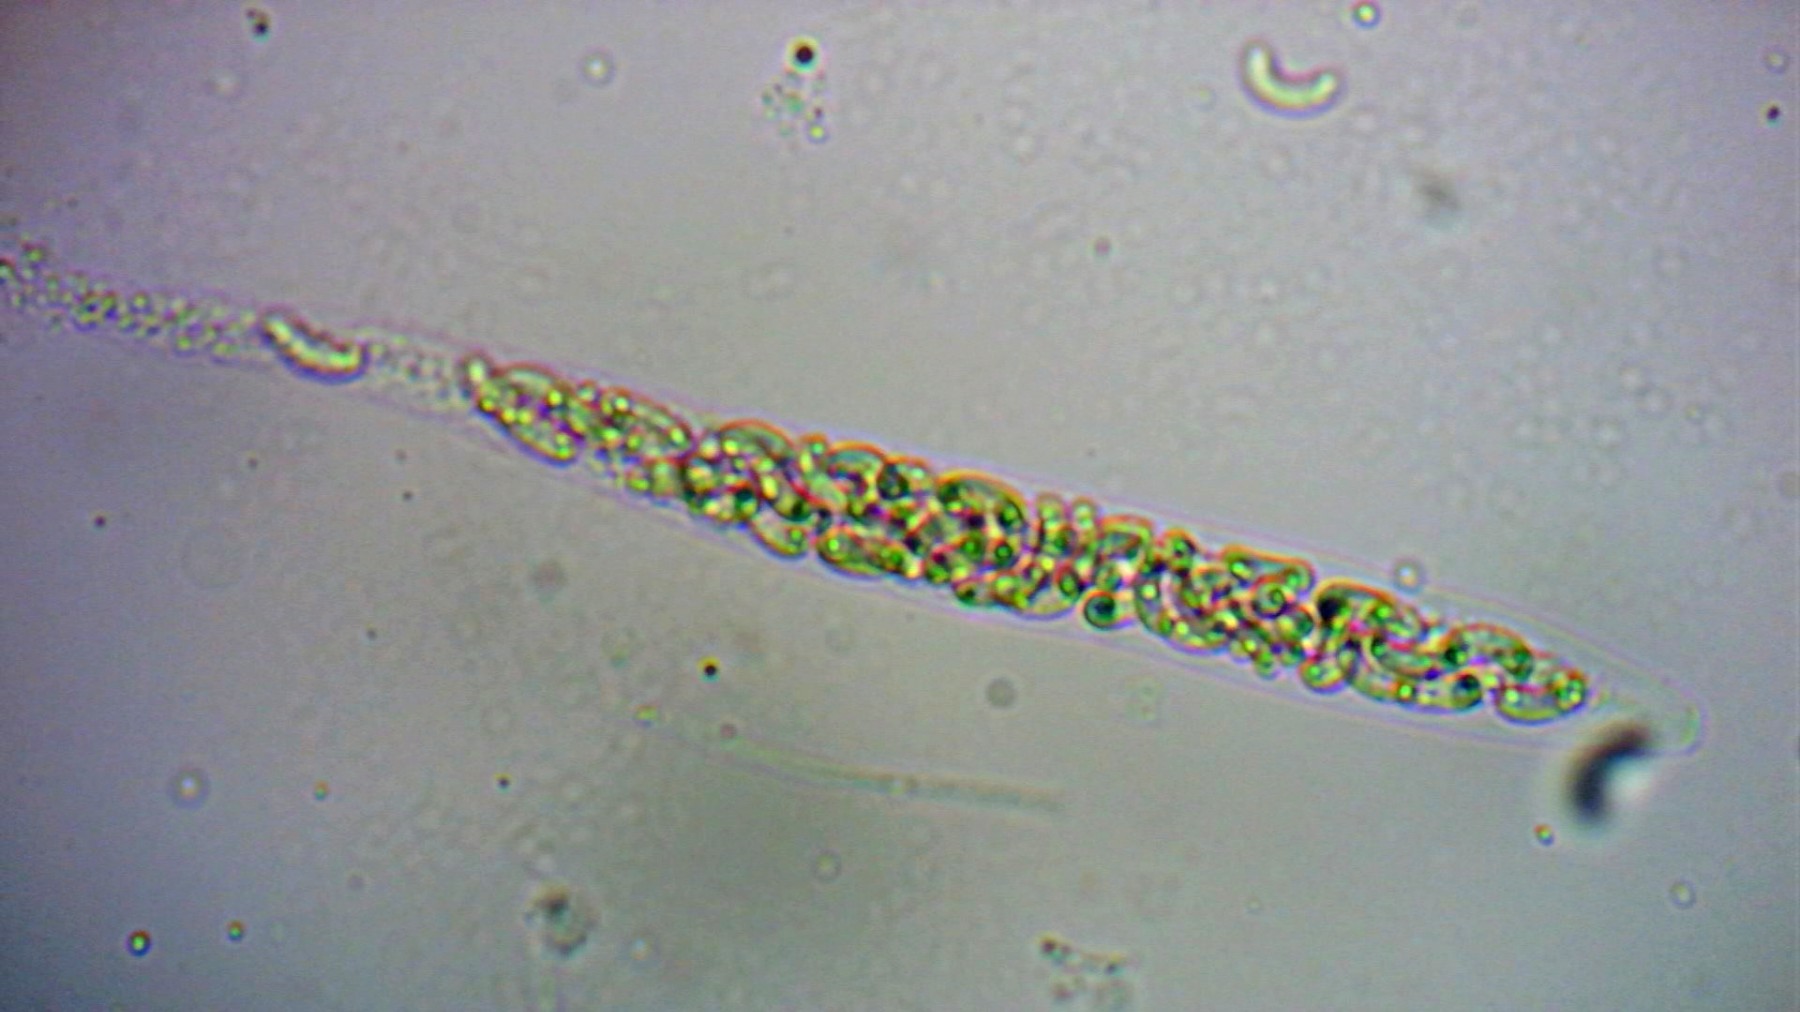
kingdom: Fungi
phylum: Ascomycota
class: Sordariomycetes
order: Xylariales
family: Diatrypaceae
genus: Diatrypella
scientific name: Diatrypella quercina
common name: ege-kulskorpe
